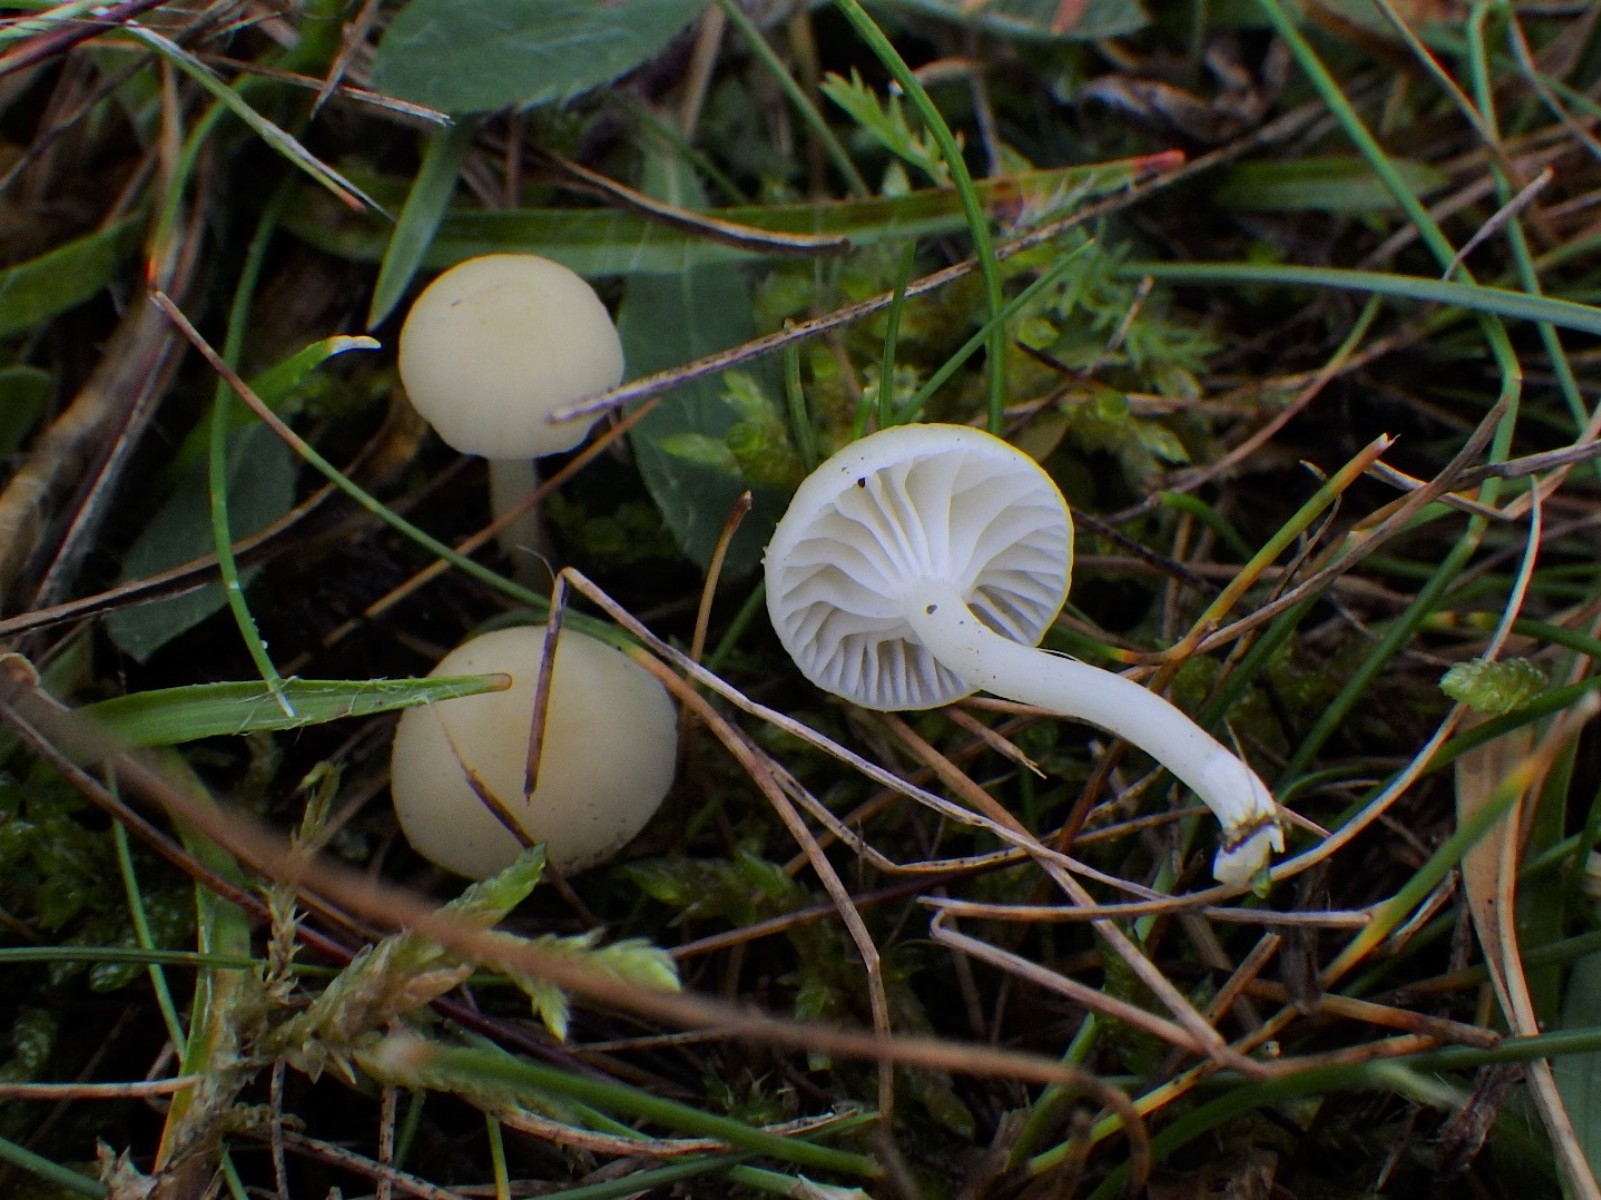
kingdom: Fungi
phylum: Basidiomycota
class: Agaricomycetes
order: Agaricales
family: Hygrophoraceae
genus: Cuphophyllus
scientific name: Cuphophyllus russocoriaceus
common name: ruslæder-vokshat
